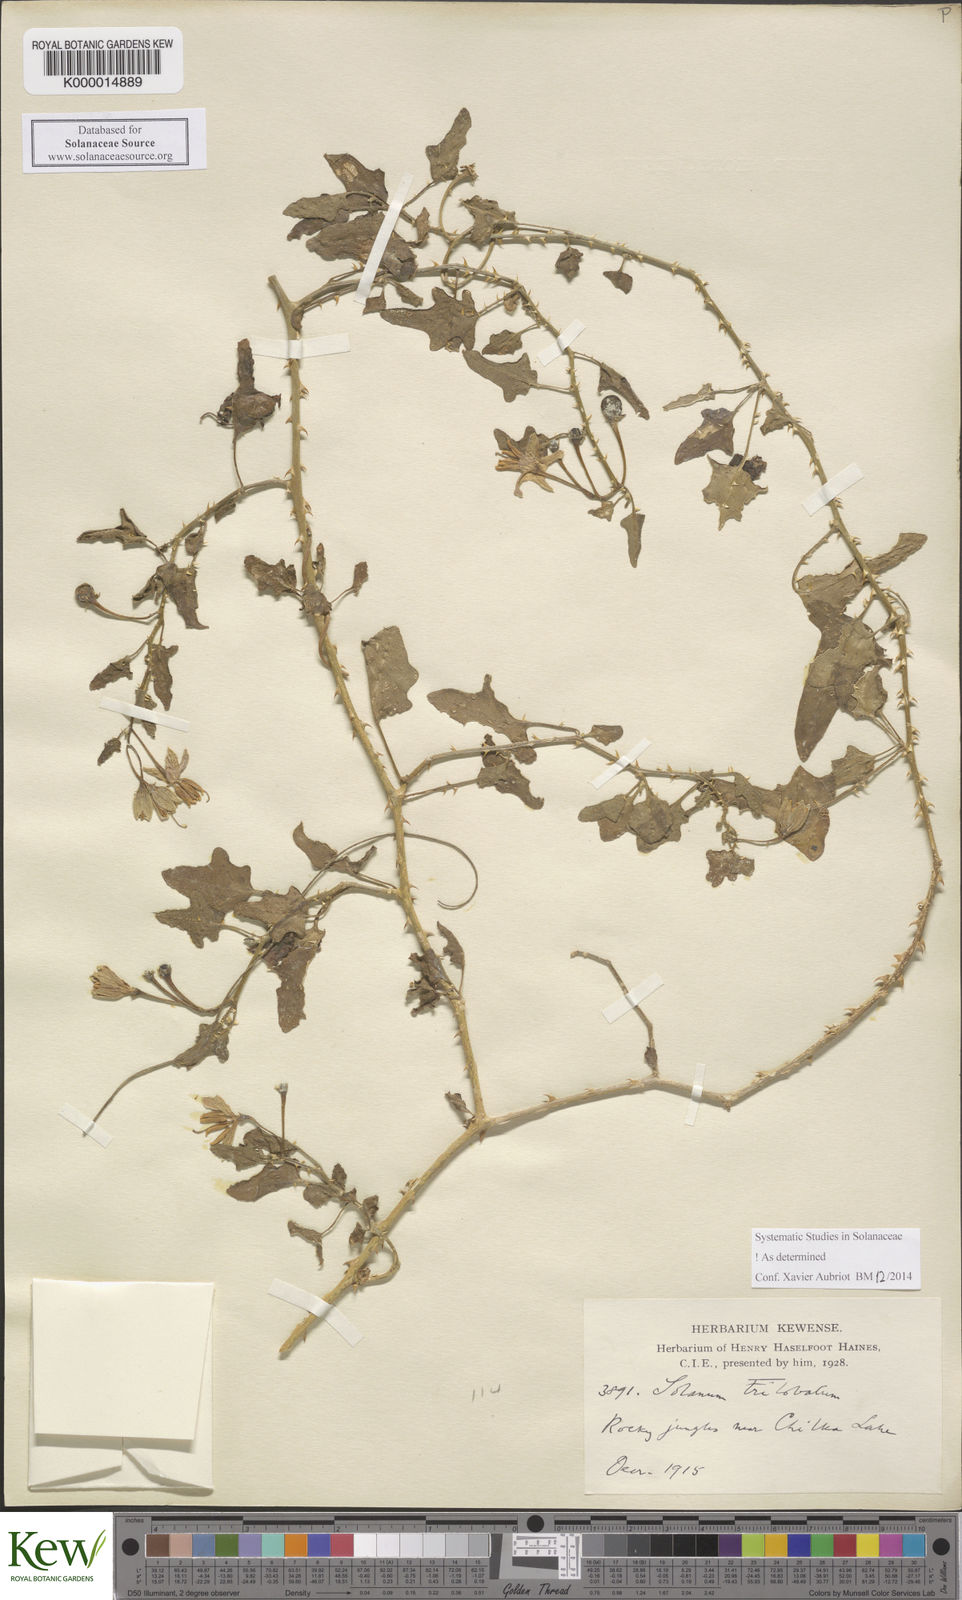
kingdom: Plantae
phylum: Tracheophyta
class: Magnoliopsida
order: Solanales
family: Solanaceae
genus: Solanum
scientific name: Solanum trilobatum
